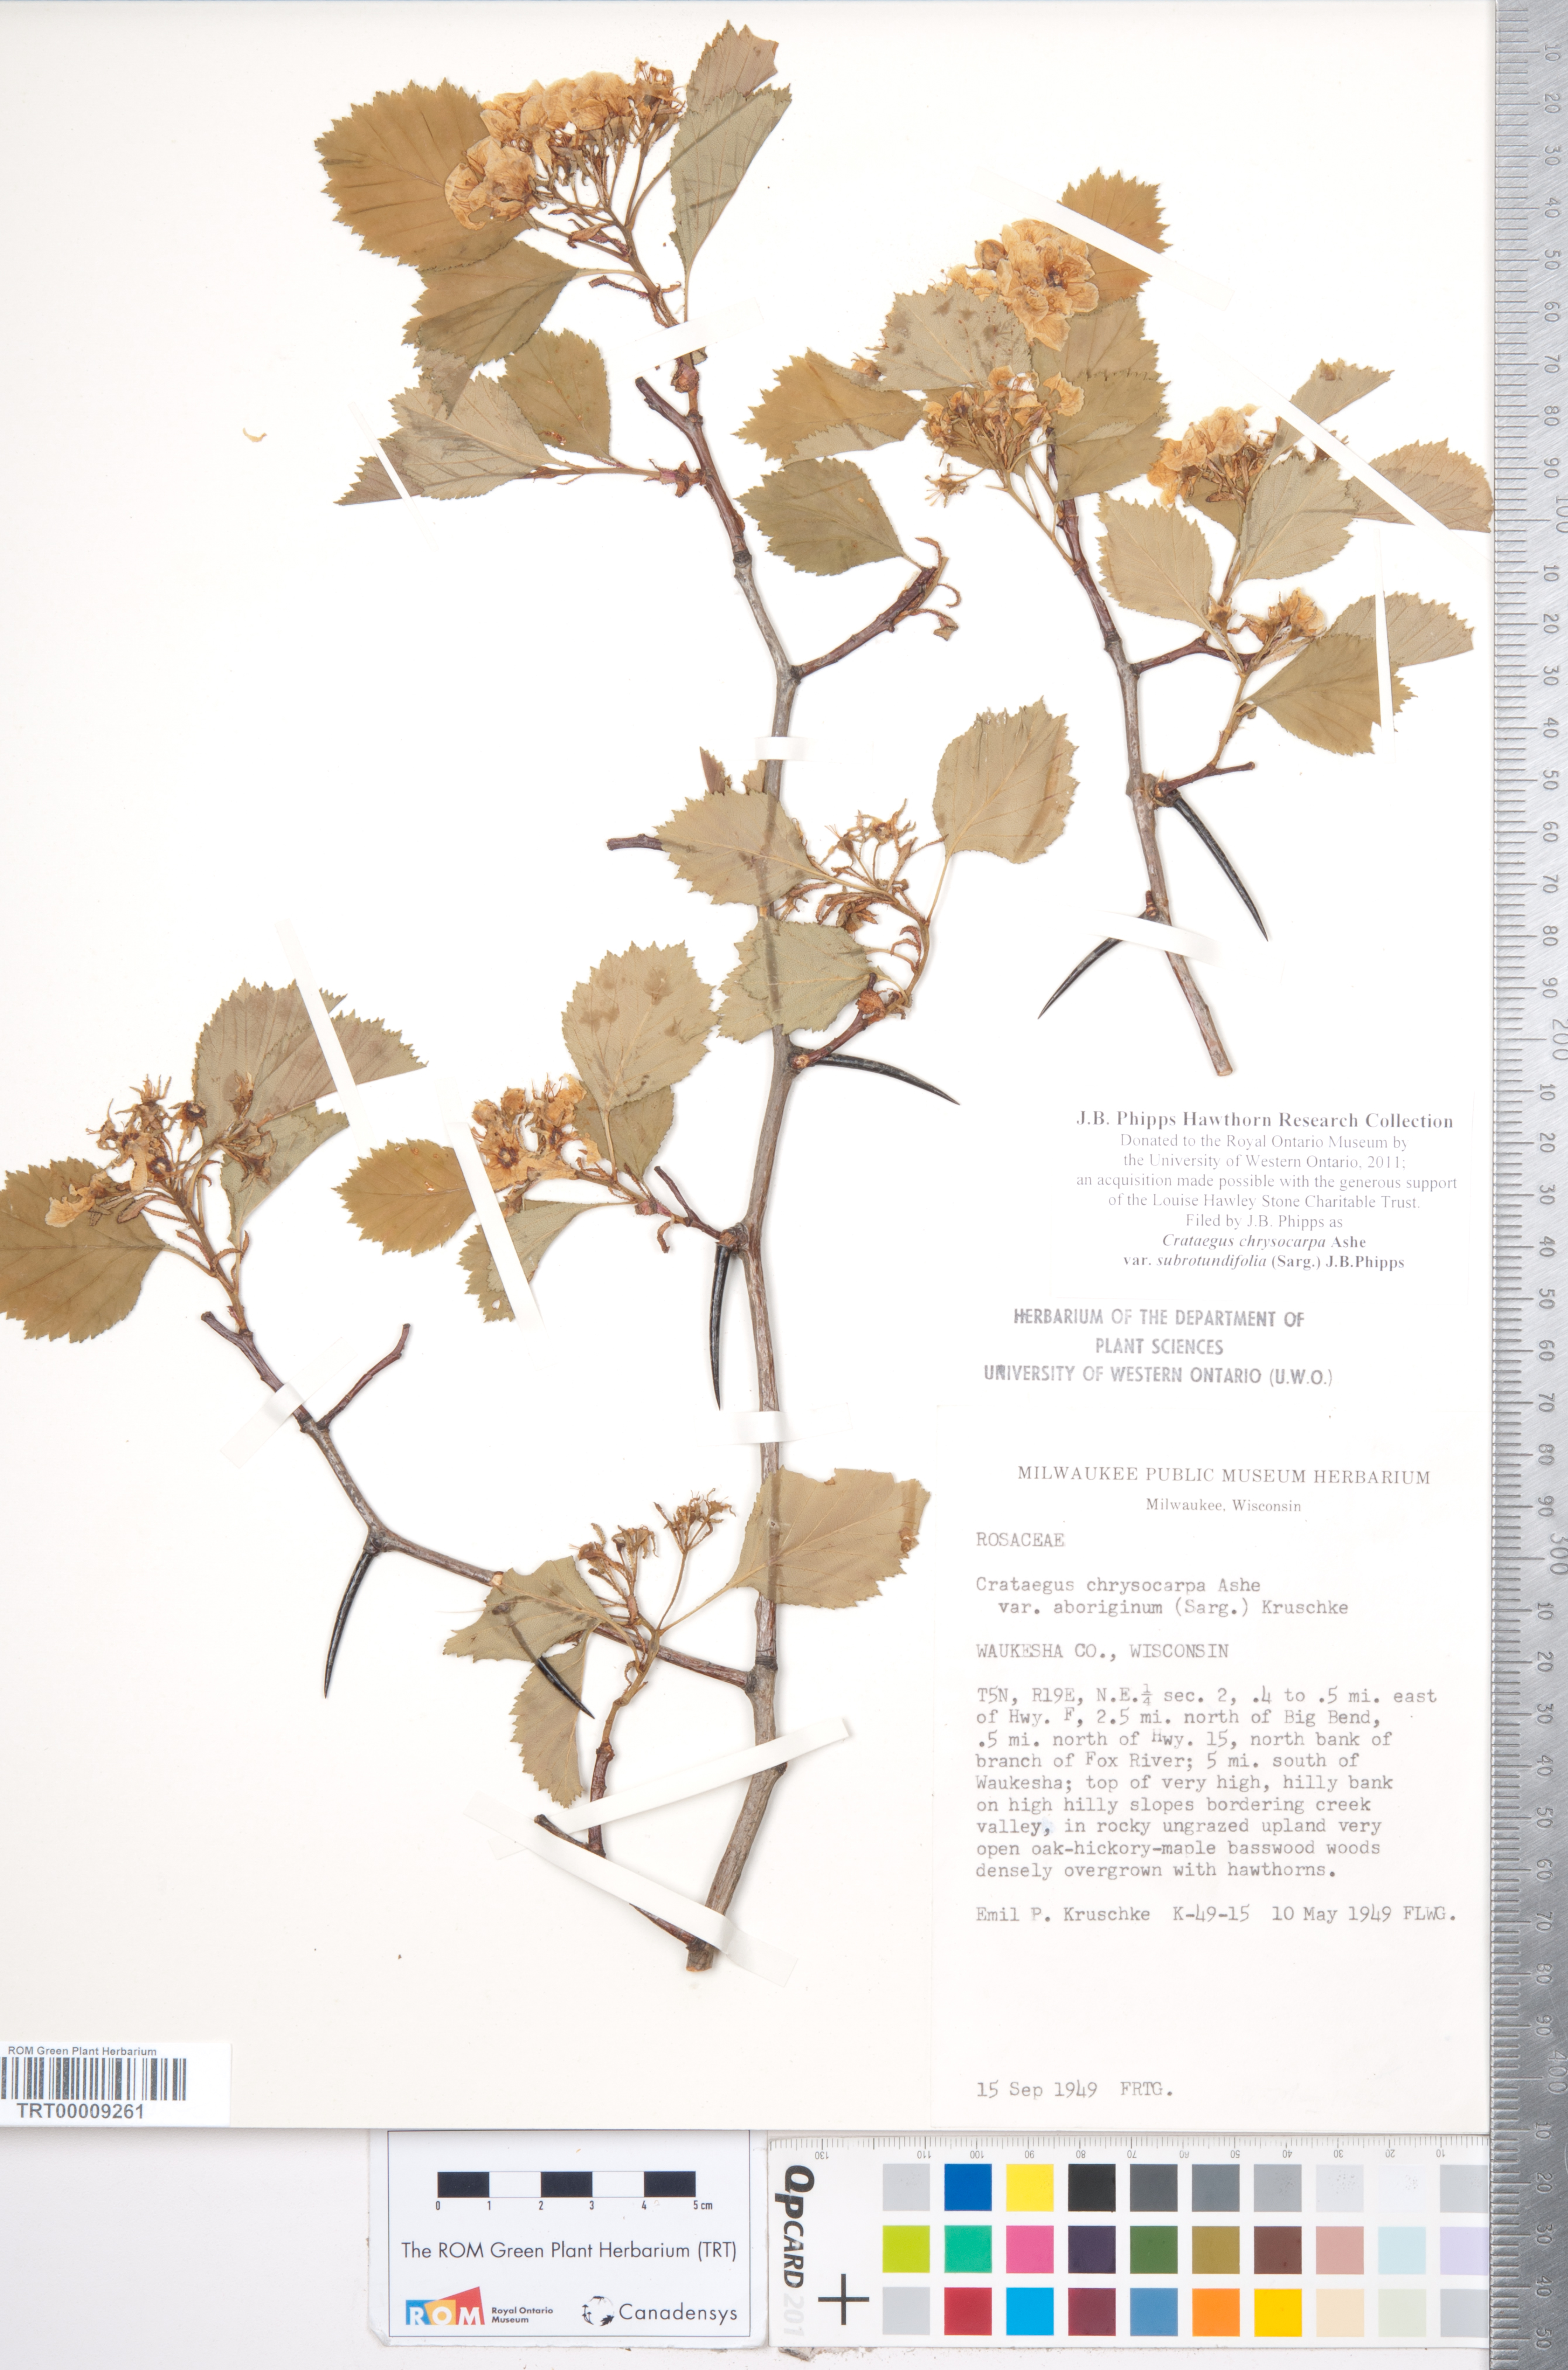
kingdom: Plantae
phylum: Tracheophyta
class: Magnoliopsida
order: Rosales
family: Rosaceae
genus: Crataegus
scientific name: Crataegus chrysocarpa
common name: Fire-berry hawthorn
